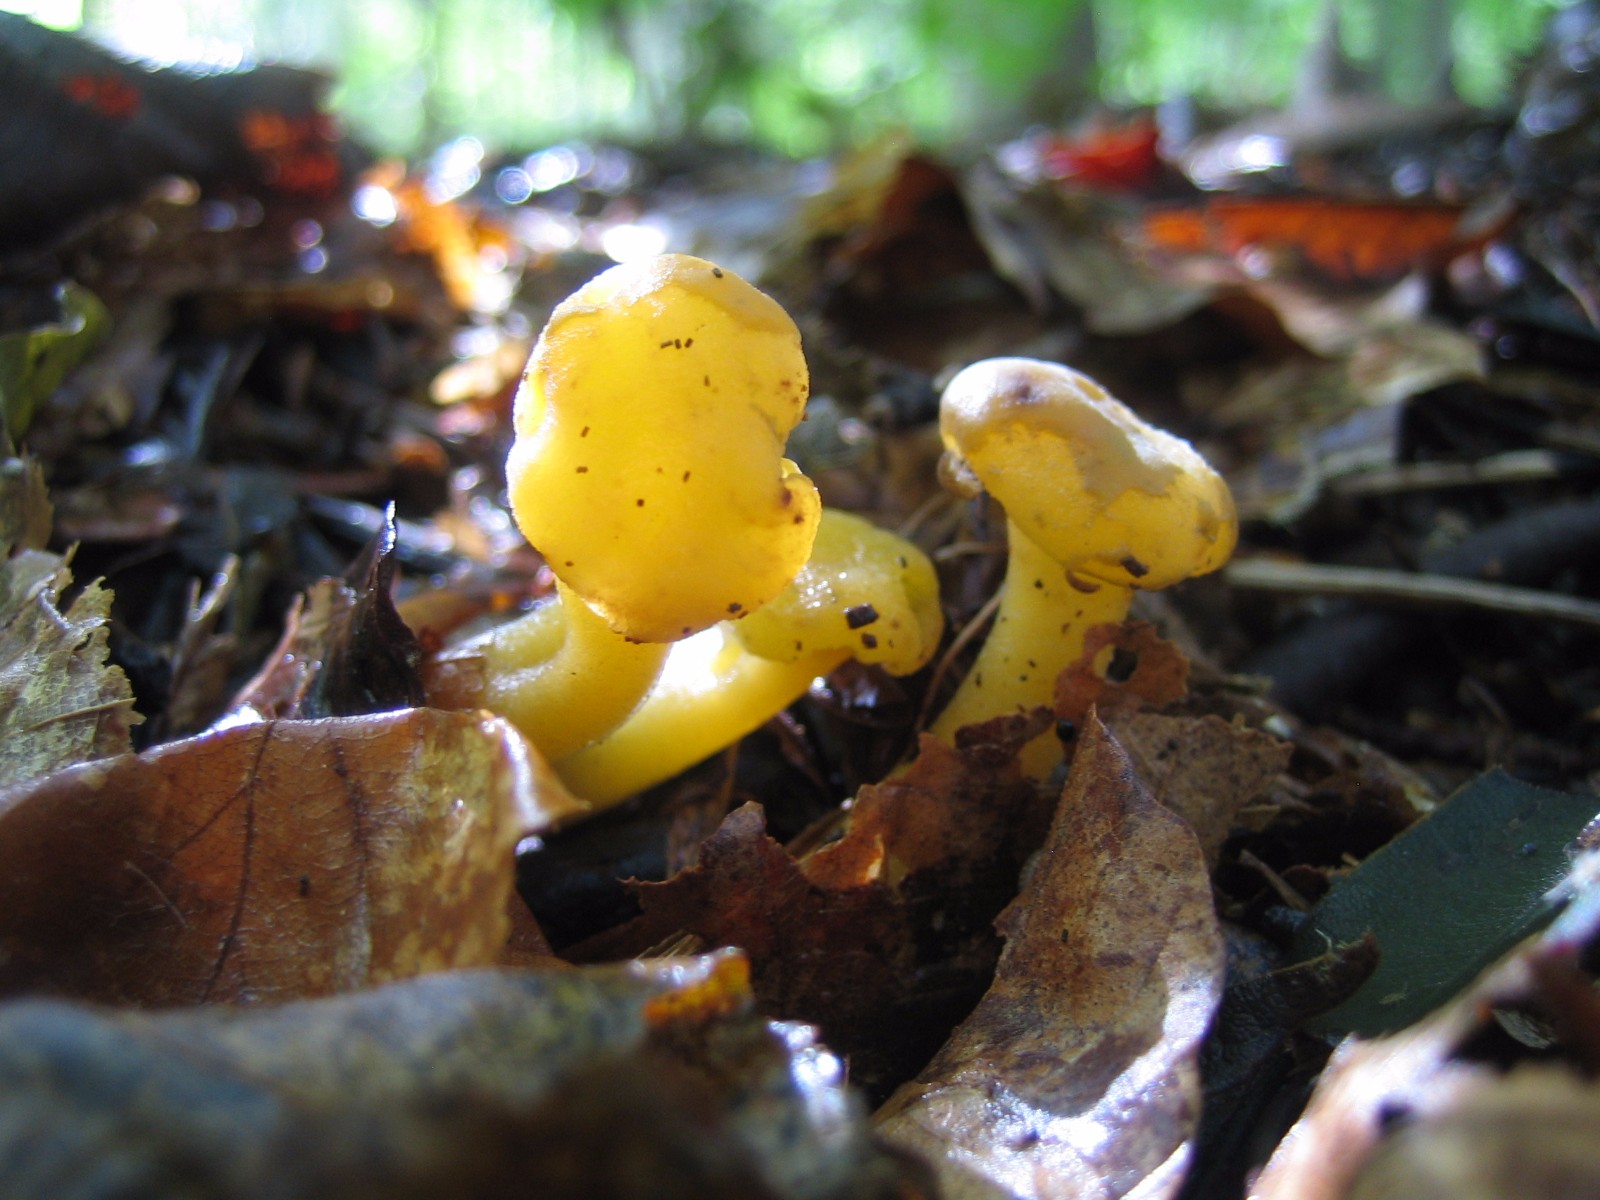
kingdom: Fungi
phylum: Ascomycota
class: Leotiomycetes
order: Leotiales
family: Leotiaceae
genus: Leotia
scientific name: Leotia lubrica
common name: ravsvamp
